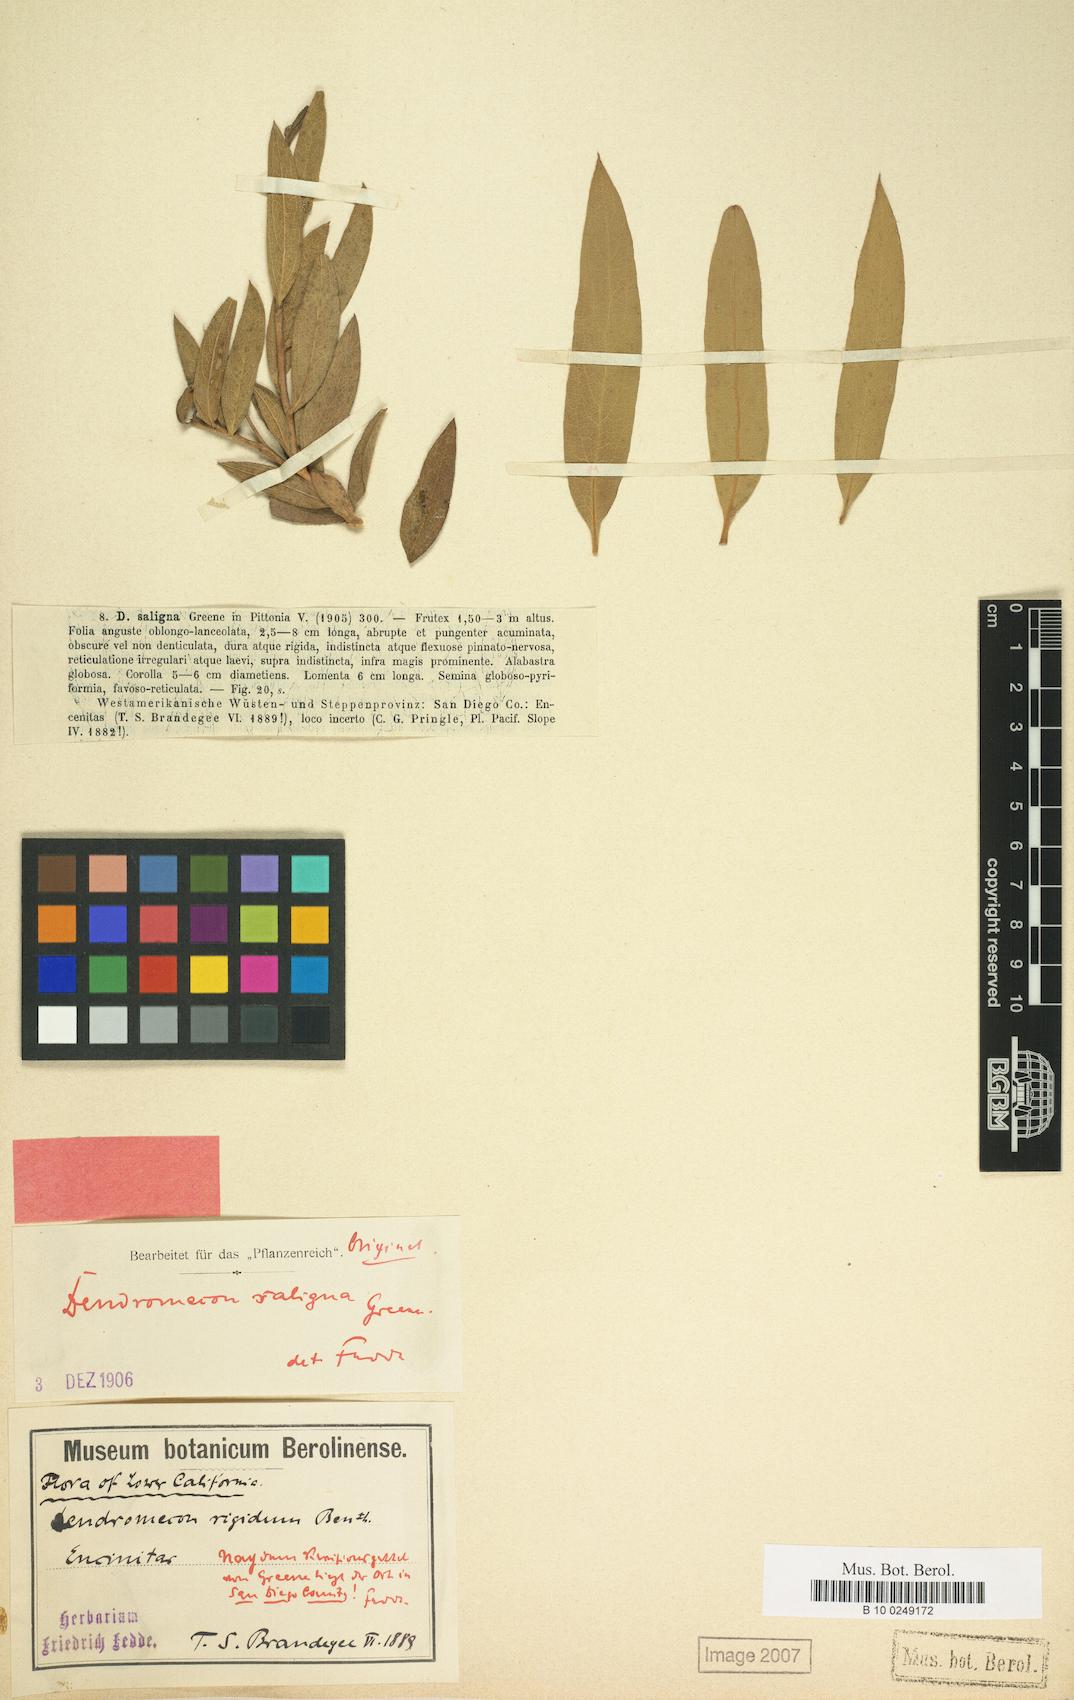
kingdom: Plantae
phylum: Tracheophyta
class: Magnoliopsida
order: Ranunculales
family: Papaveraceae
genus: Dendromecon
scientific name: Dendromecon rigida
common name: Tree poppy
